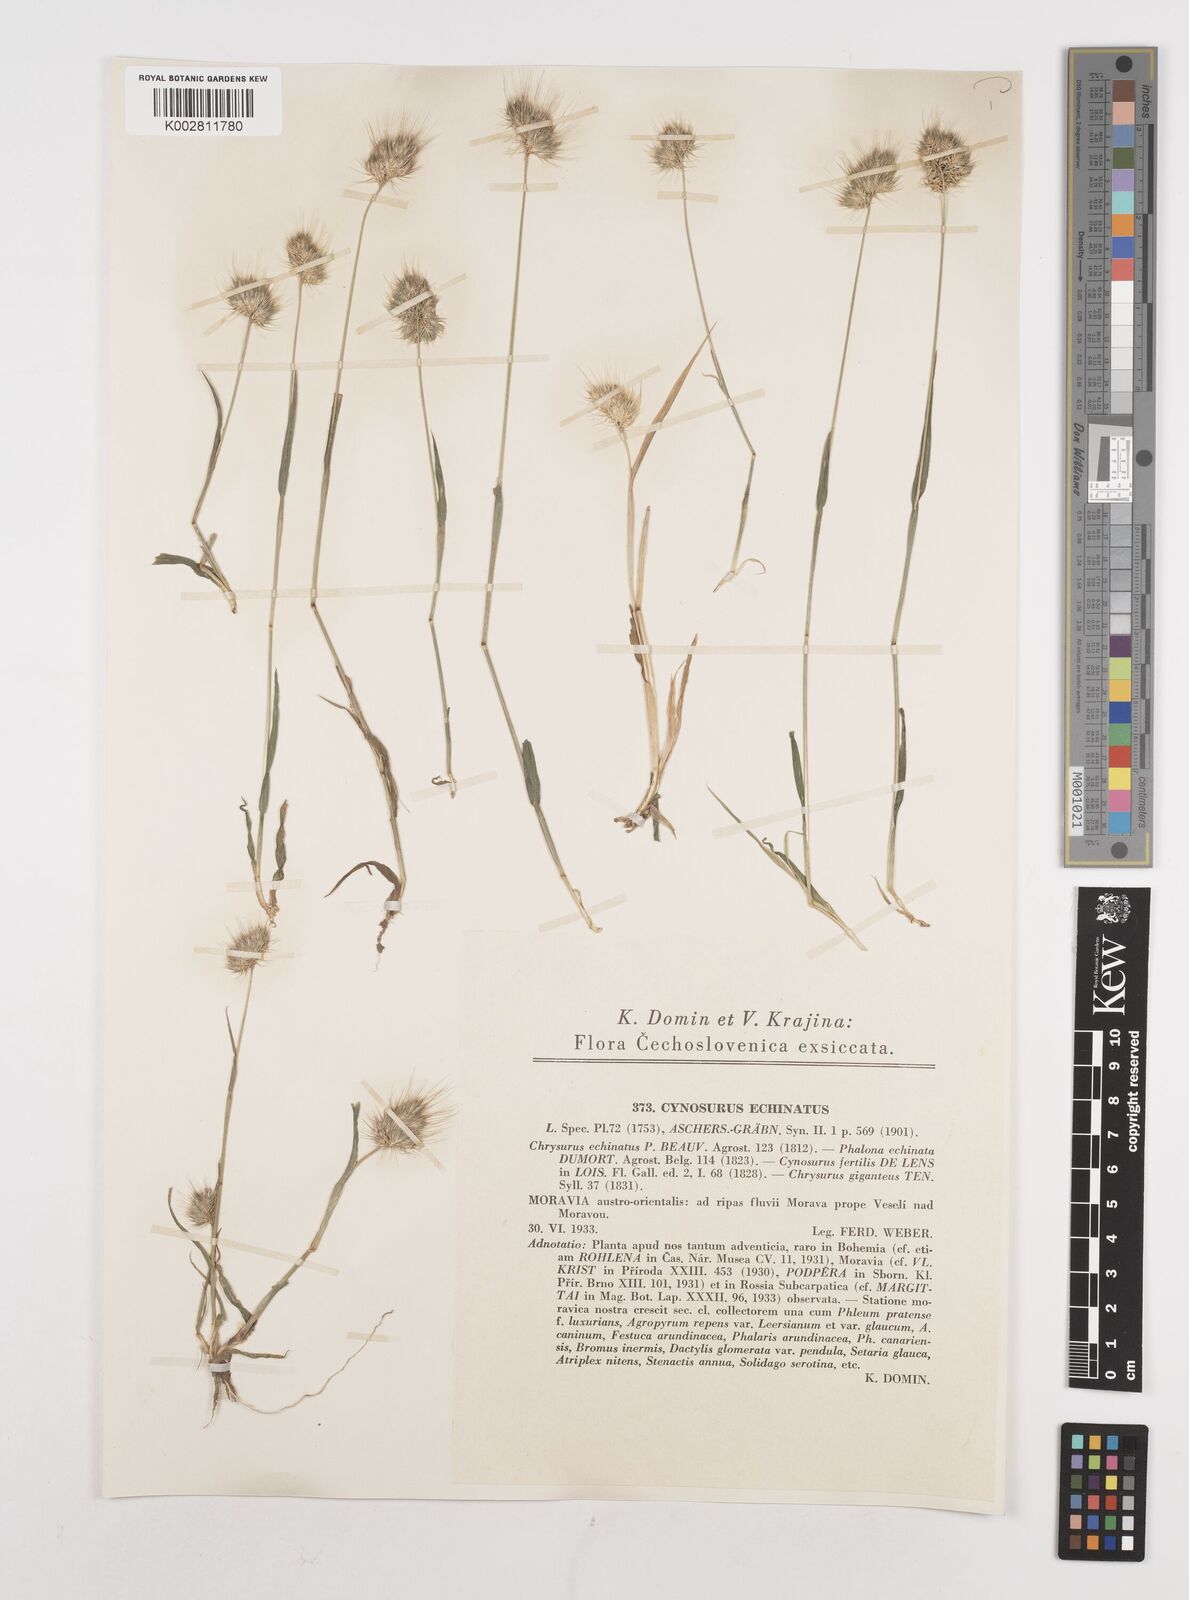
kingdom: Plantae
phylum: Tracheophyta
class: Liliopsida
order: Poales
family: Poaceae
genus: Cynosurus
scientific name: Cynosurus echinatus
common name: Rough dog's-tail
